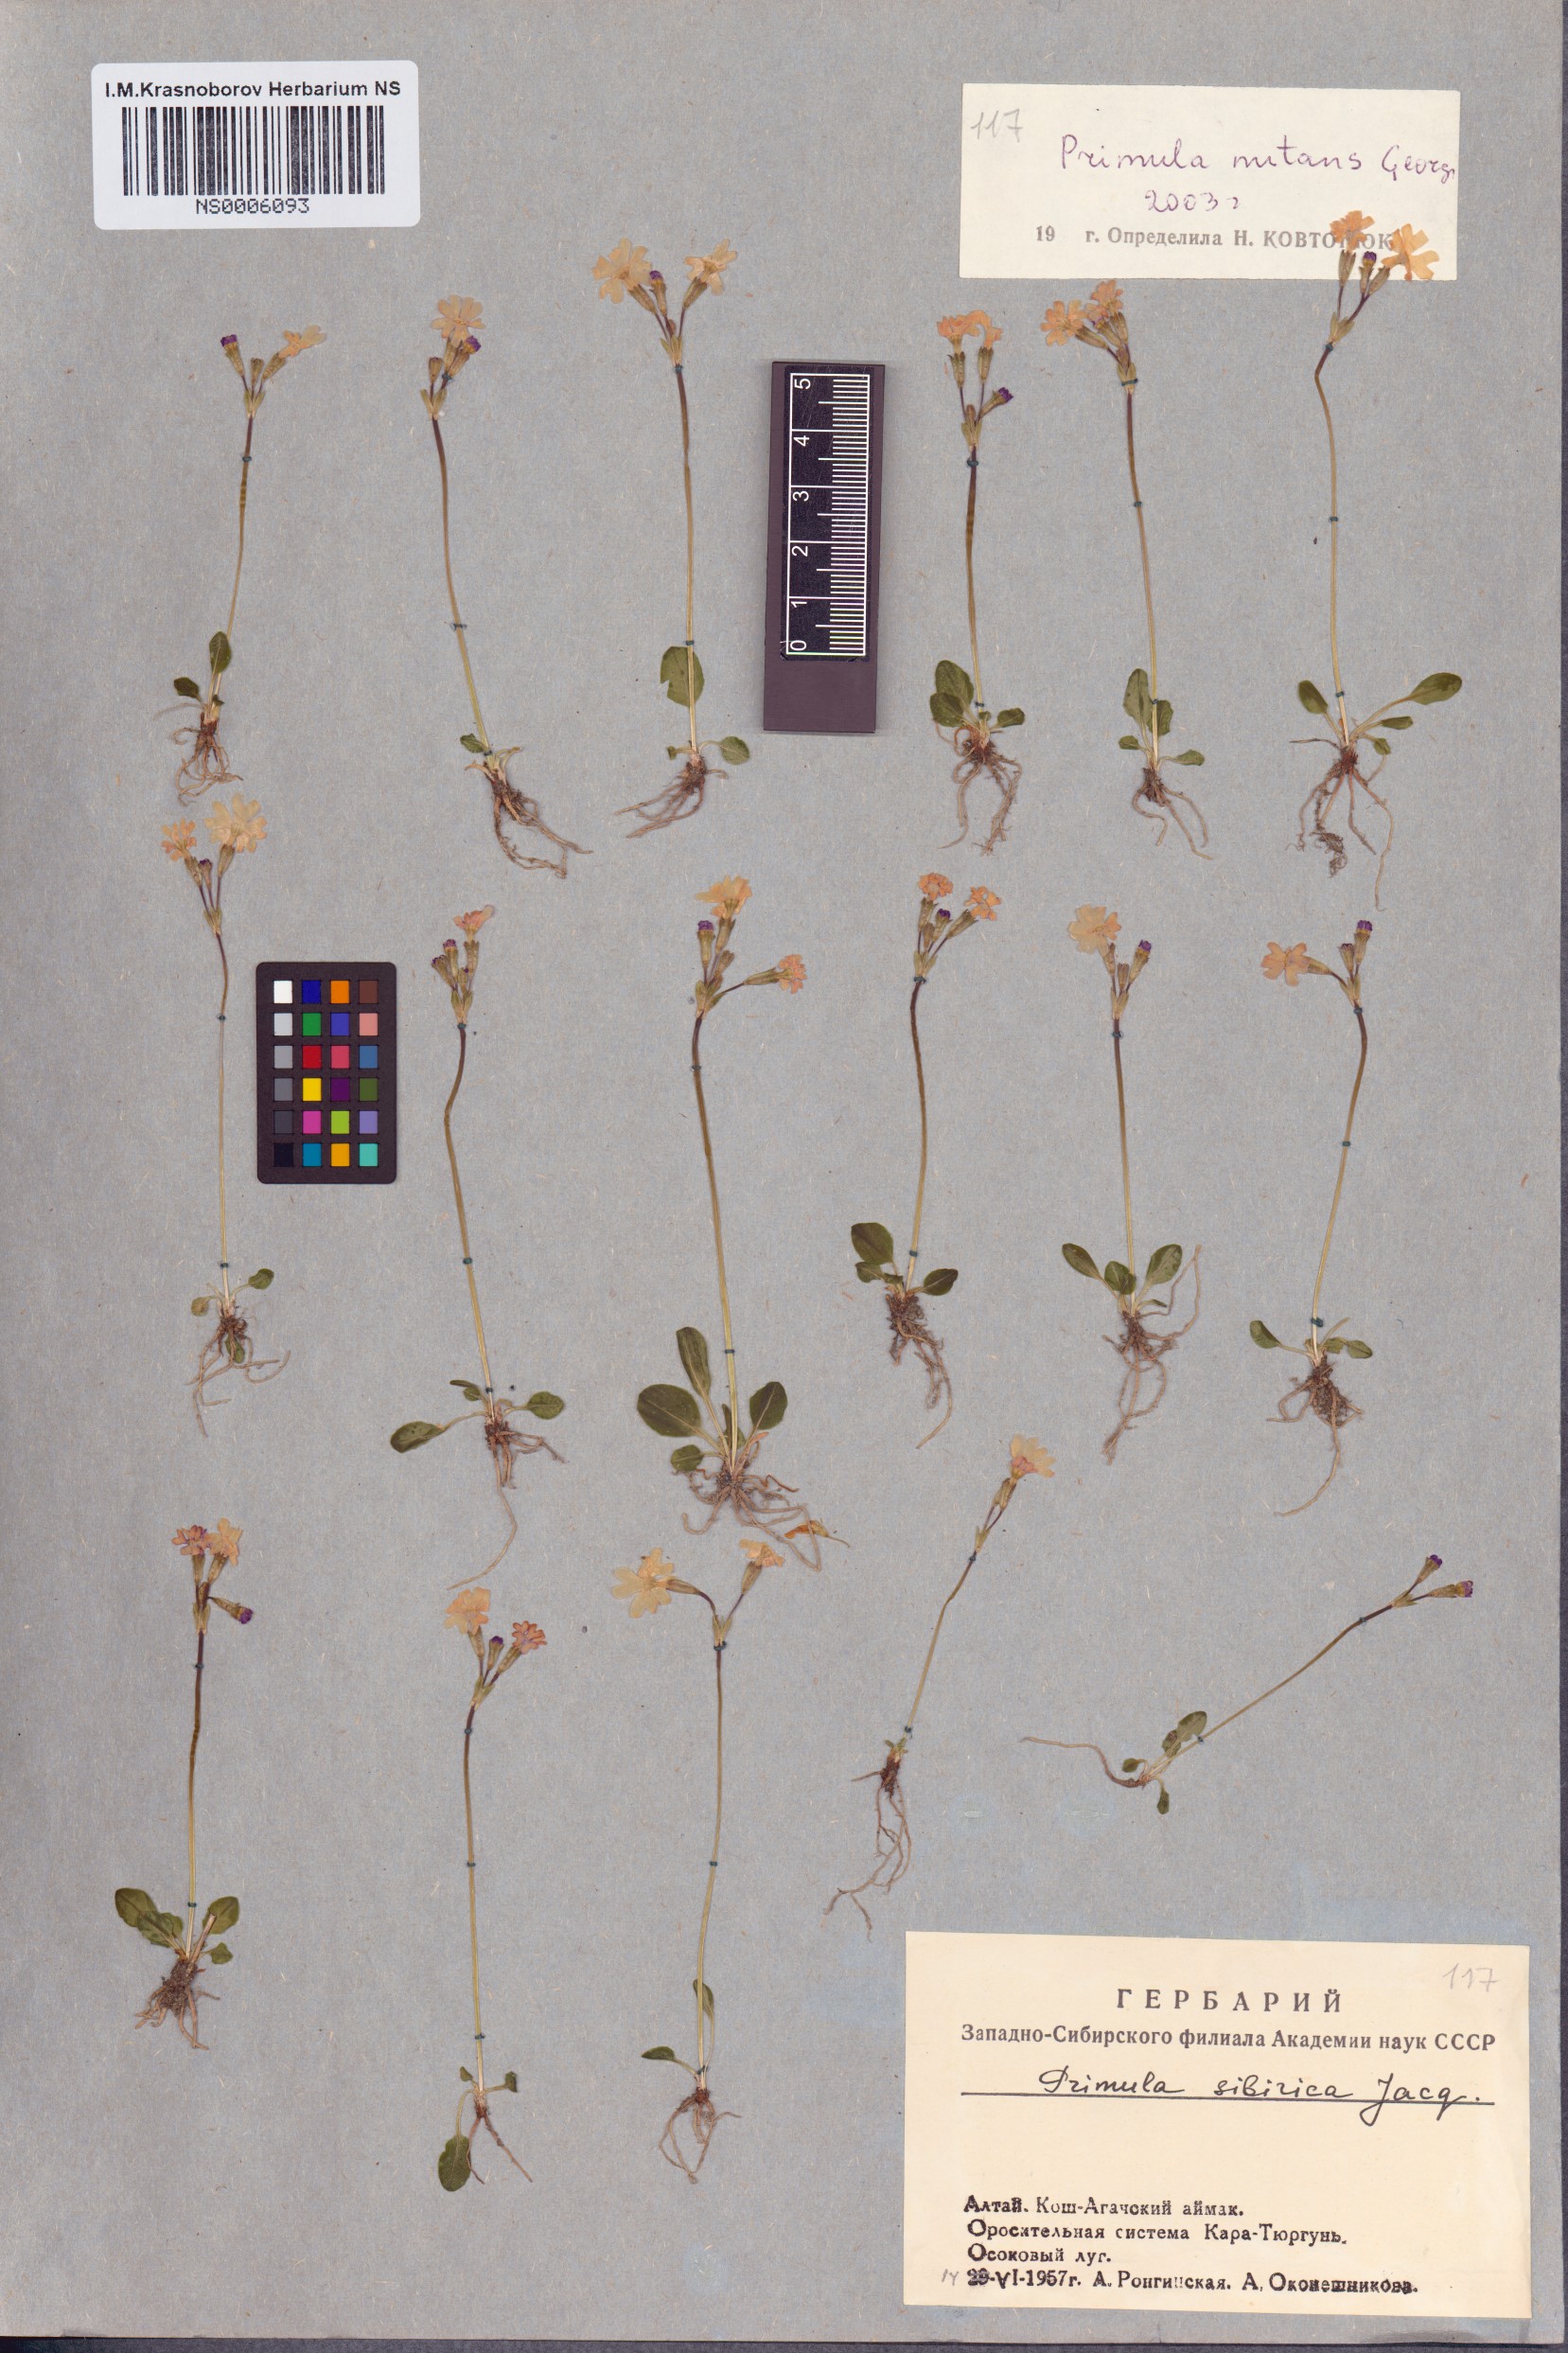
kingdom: Plantae
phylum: Tracheophyta
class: Magnoliopsida
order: Ericales
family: Primulaceae
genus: Primula
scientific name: Primula nutans
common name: Siberian primrose
